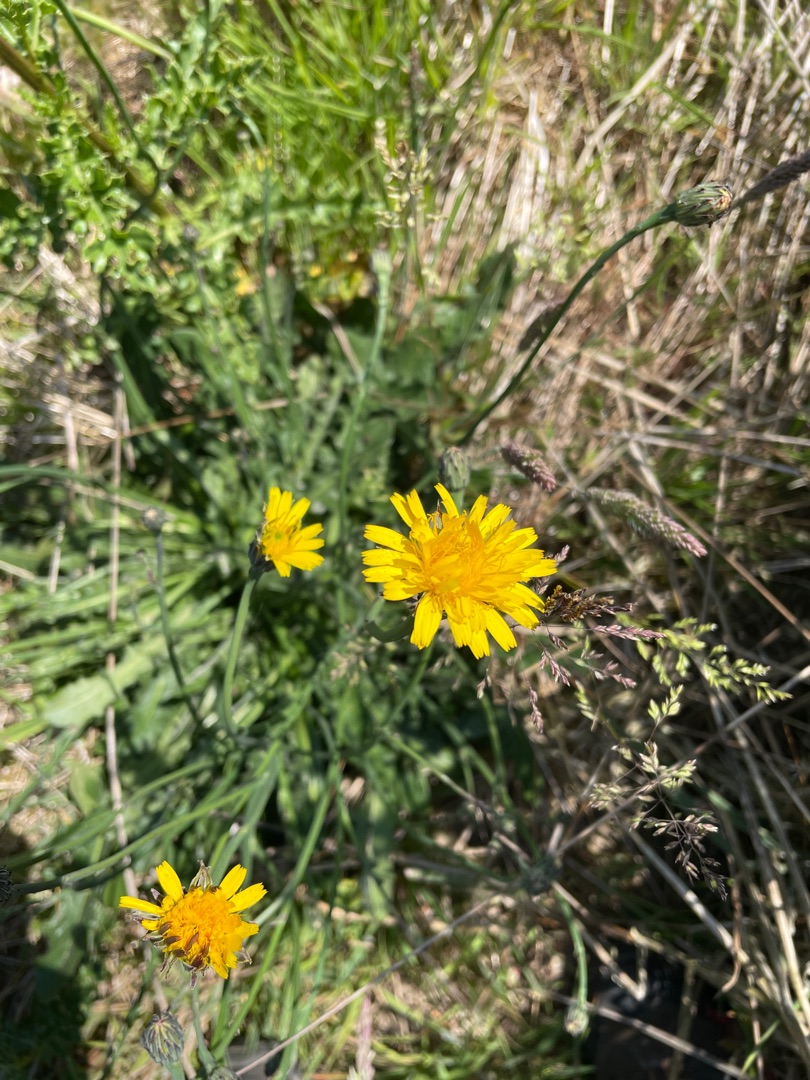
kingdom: Plantae
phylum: Tracheophyta
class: Magnoliopsida
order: Asterales
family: Asteraceae
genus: Hypochaeris
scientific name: Hypochaeris radicata
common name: Almindelig kongepen
